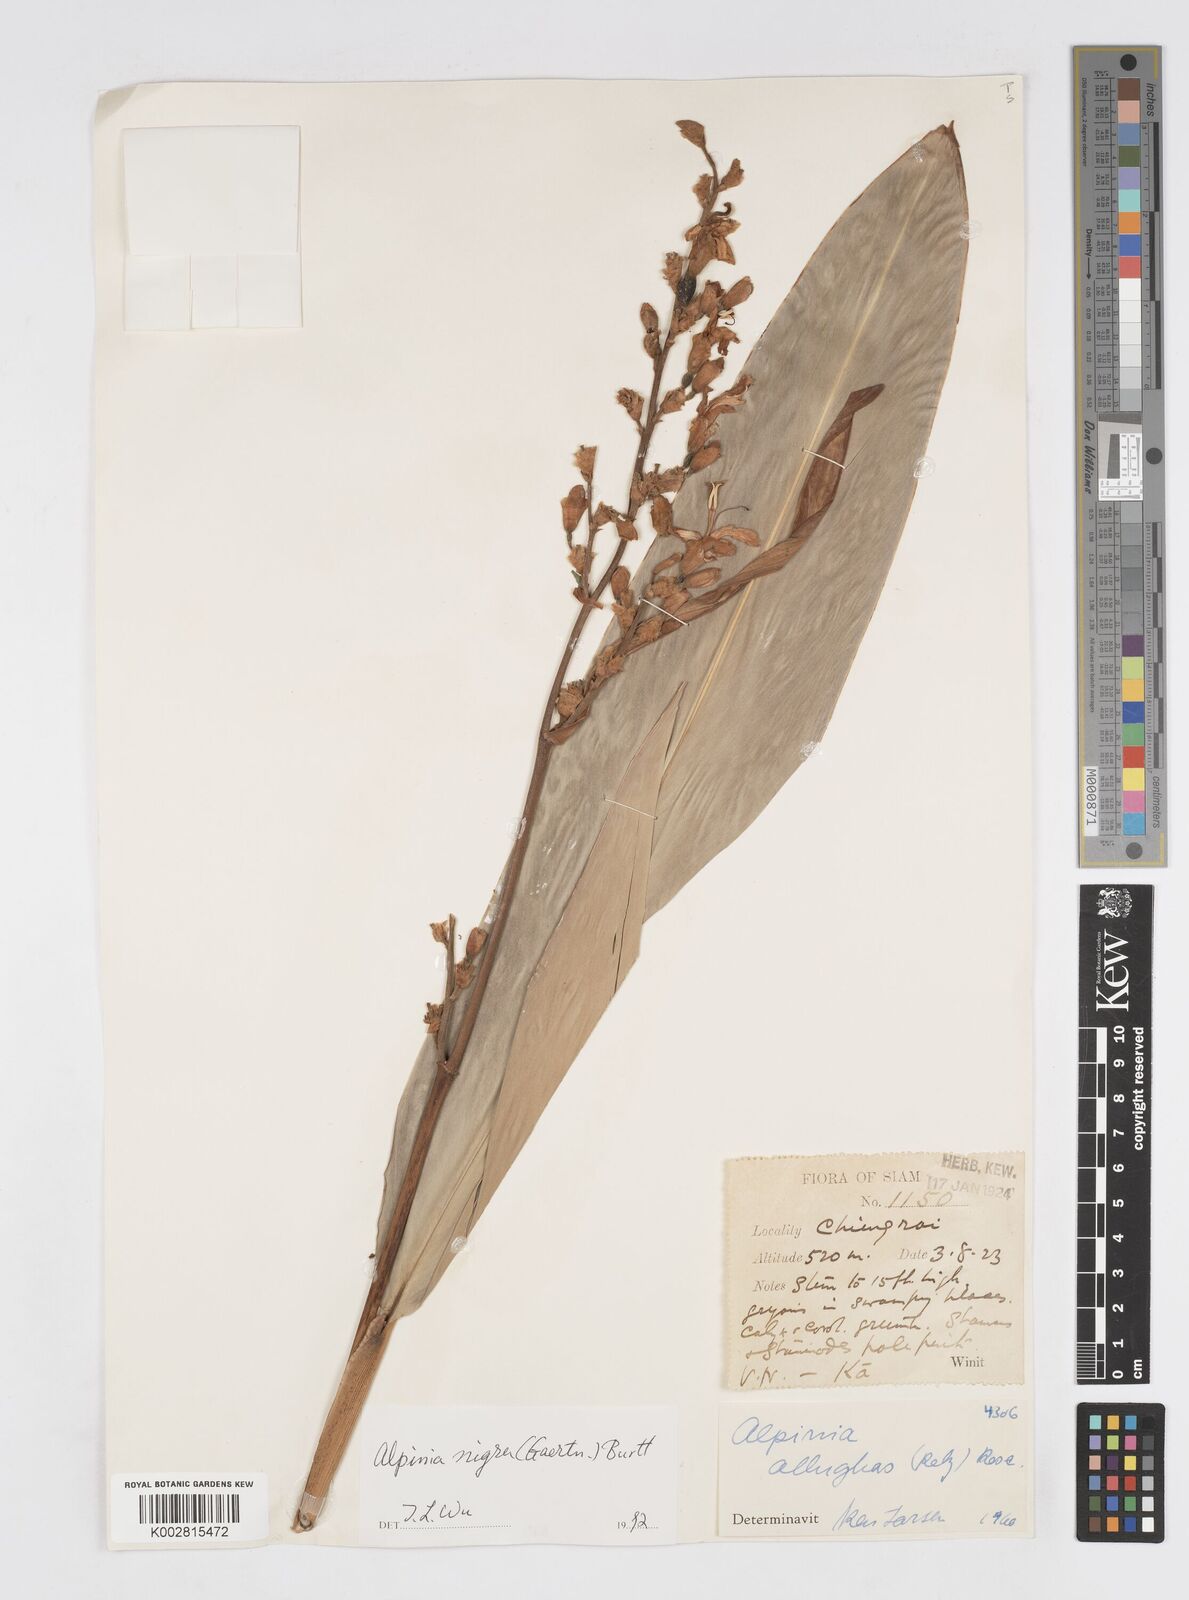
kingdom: Plantae
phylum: Tracheophyta
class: Liliopsida
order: Zingiberales
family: Zingiberaceae
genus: Alpinia
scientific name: Alpinia nigra
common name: Black fruited galanga
